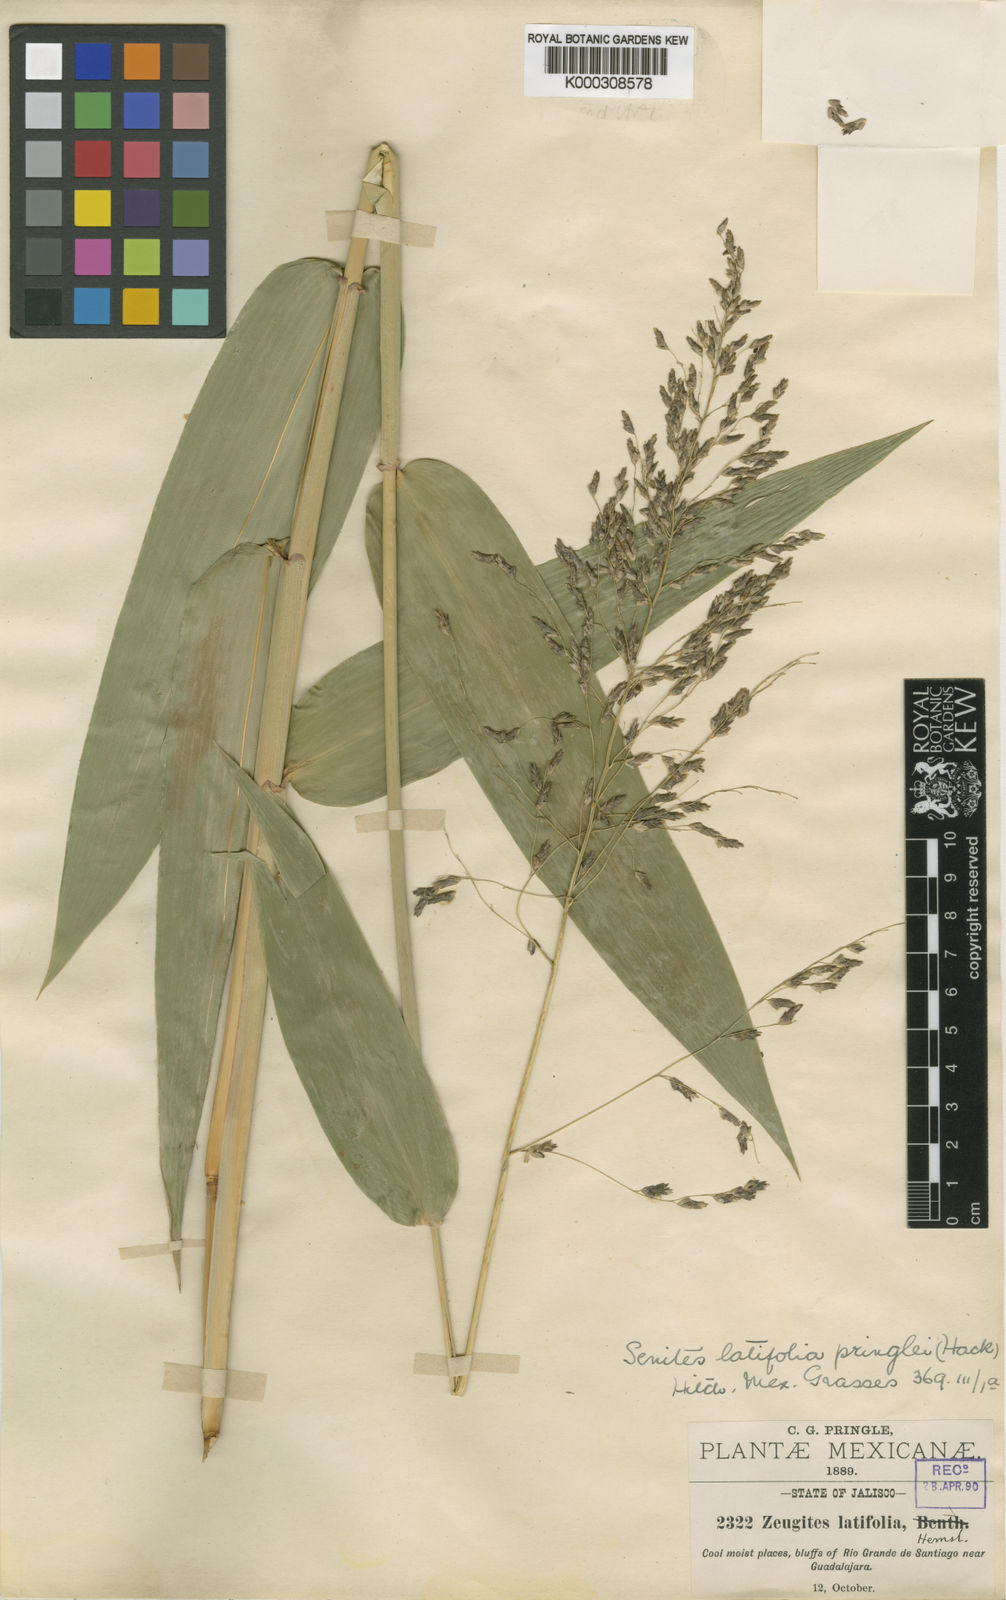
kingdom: Plantae
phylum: Tracheophyta
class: Liliopsida
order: Poales
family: Poaceae
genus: Zeugites
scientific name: Zeugites hackelii
